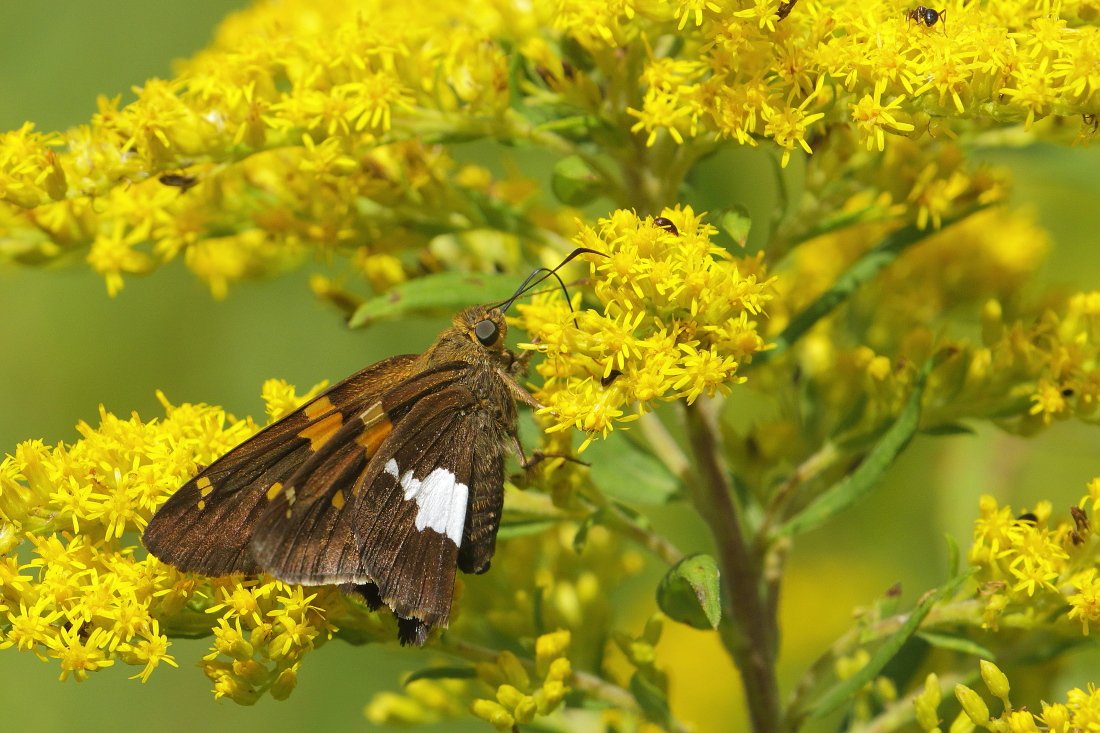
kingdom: Animalia
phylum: Arthropoda
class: Insecta
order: Lepidoptera
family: Hesperiidae
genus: Epargyreus
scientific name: Epargyreus clarus
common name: Silver-spotted Skipper
